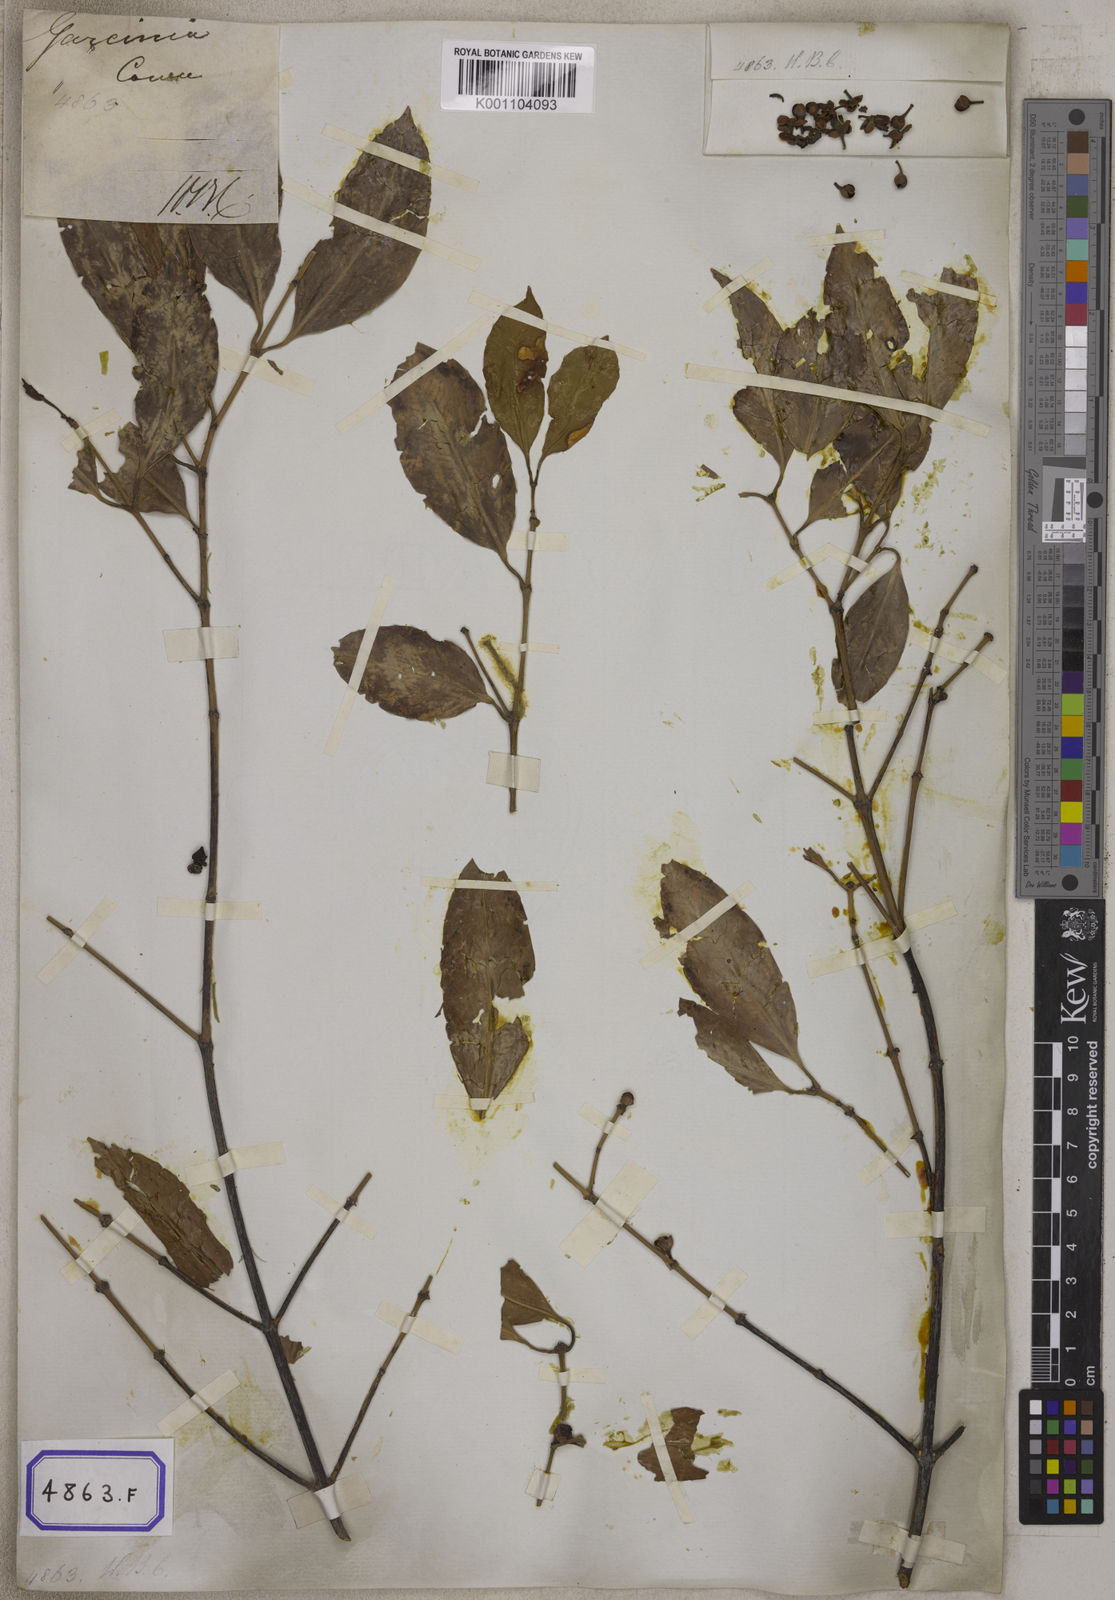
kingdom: Plantae
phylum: Tracheophyta
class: Magnoliopsida
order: Malpighiales
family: Clusiaceae
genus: Garcinia
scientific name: Garcinia
